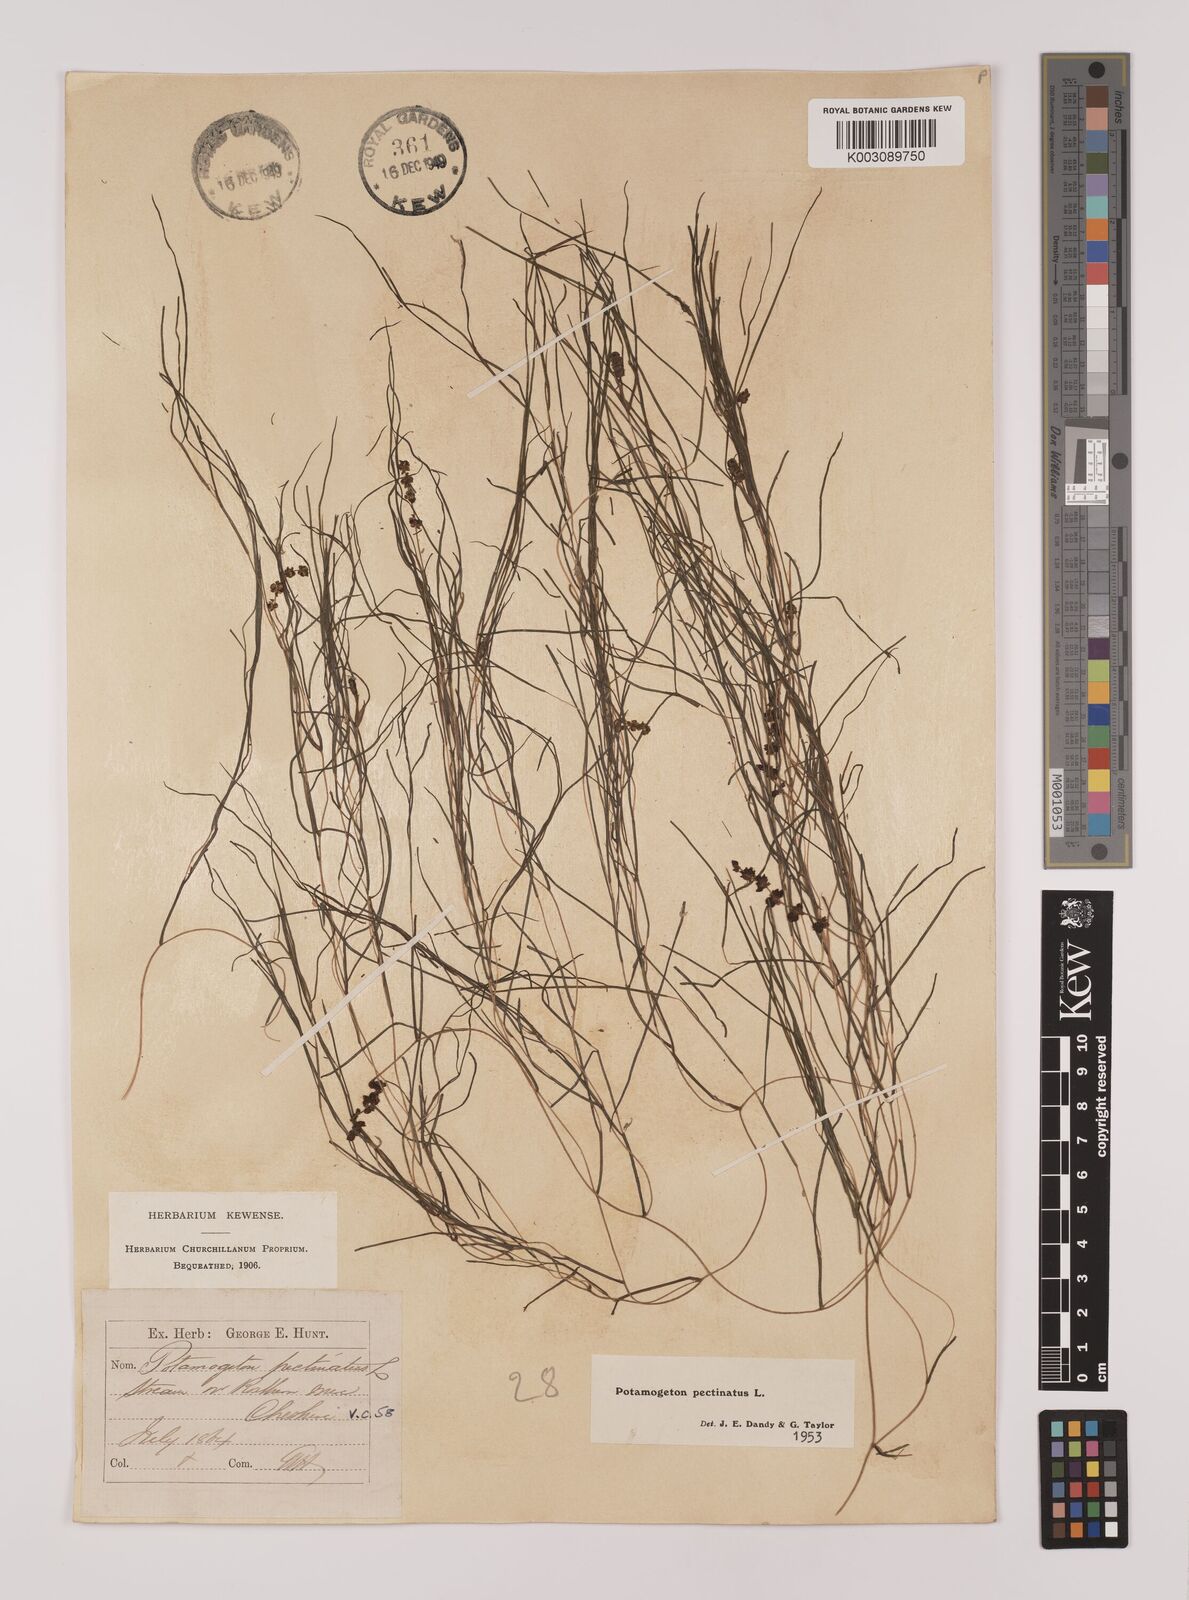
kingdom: Plantae
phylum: Tracheophyta
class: Liliopsida
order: Alismatales
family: Potamogetonaceae
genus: Stuckenia
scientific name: Stuckenia pectinata
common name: Sago pondweed
